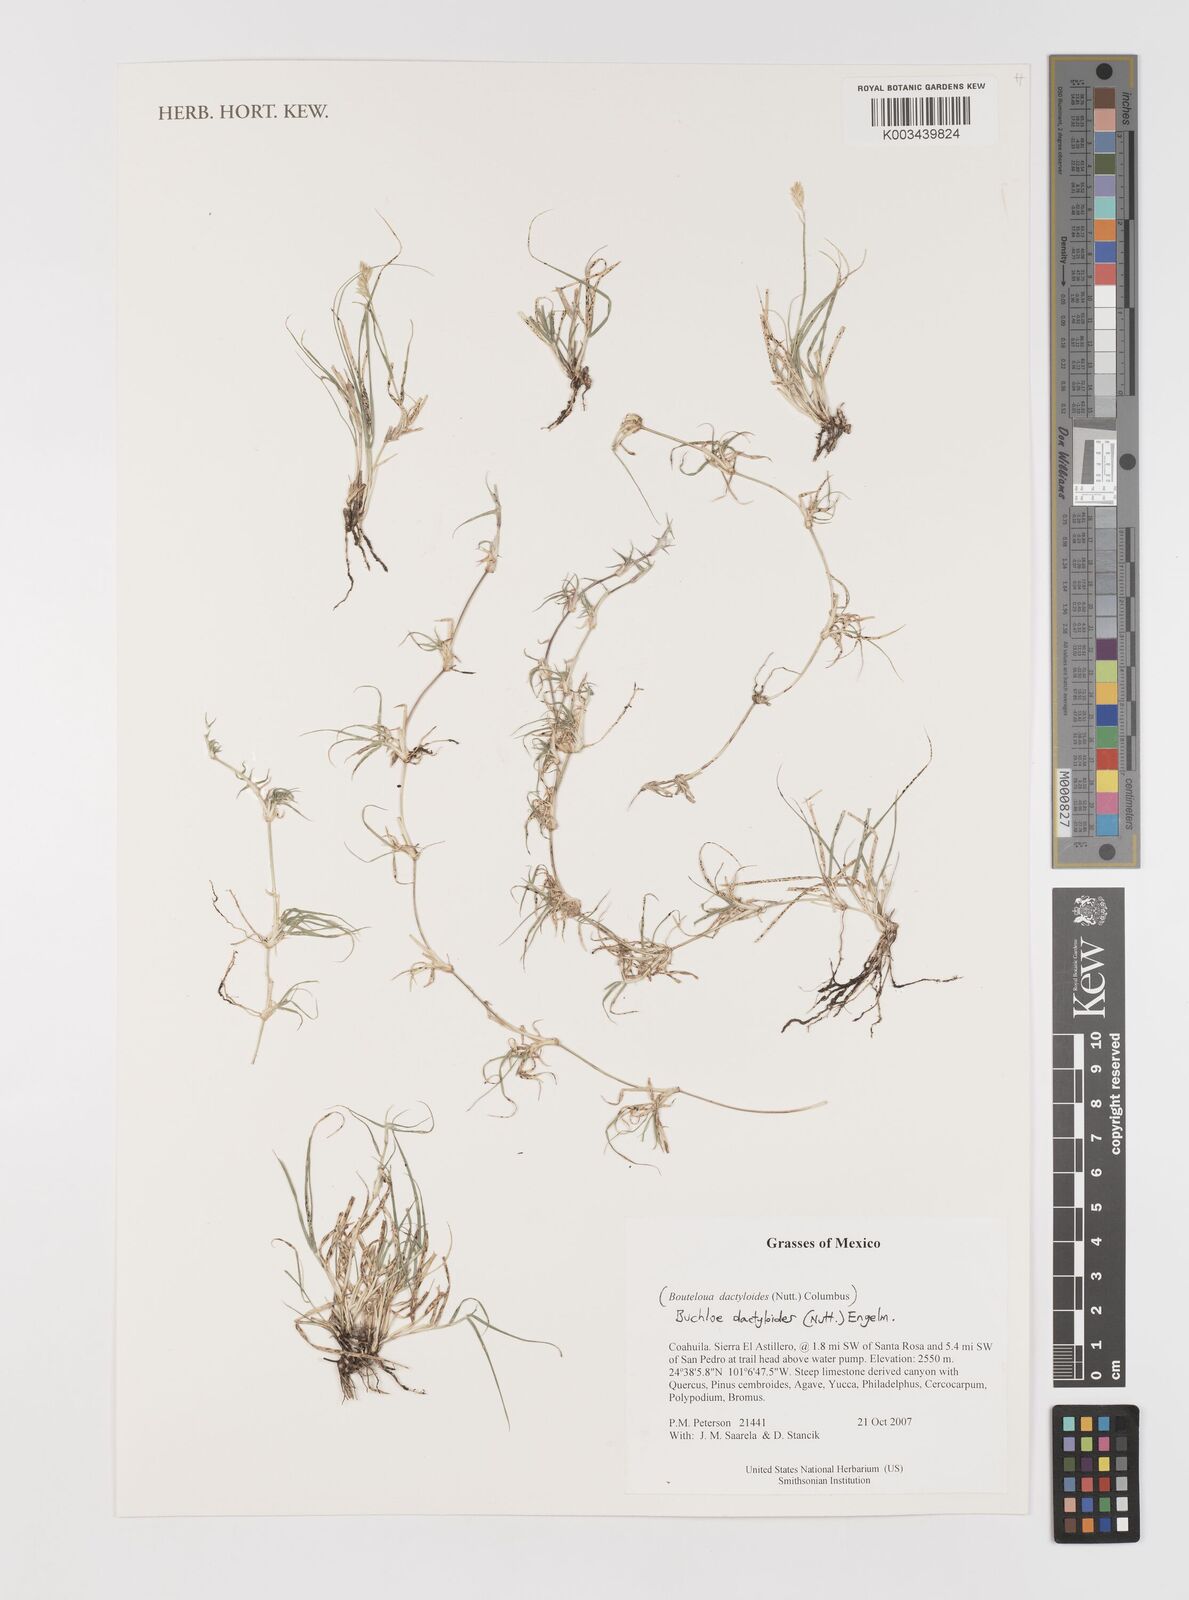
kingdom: Plantae
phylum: Tracheophyta
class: Liliopsida
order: Poales
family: Poaceae
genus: Bouteloua
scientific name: Bouteloua dactyloides
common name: Buffalo grass
